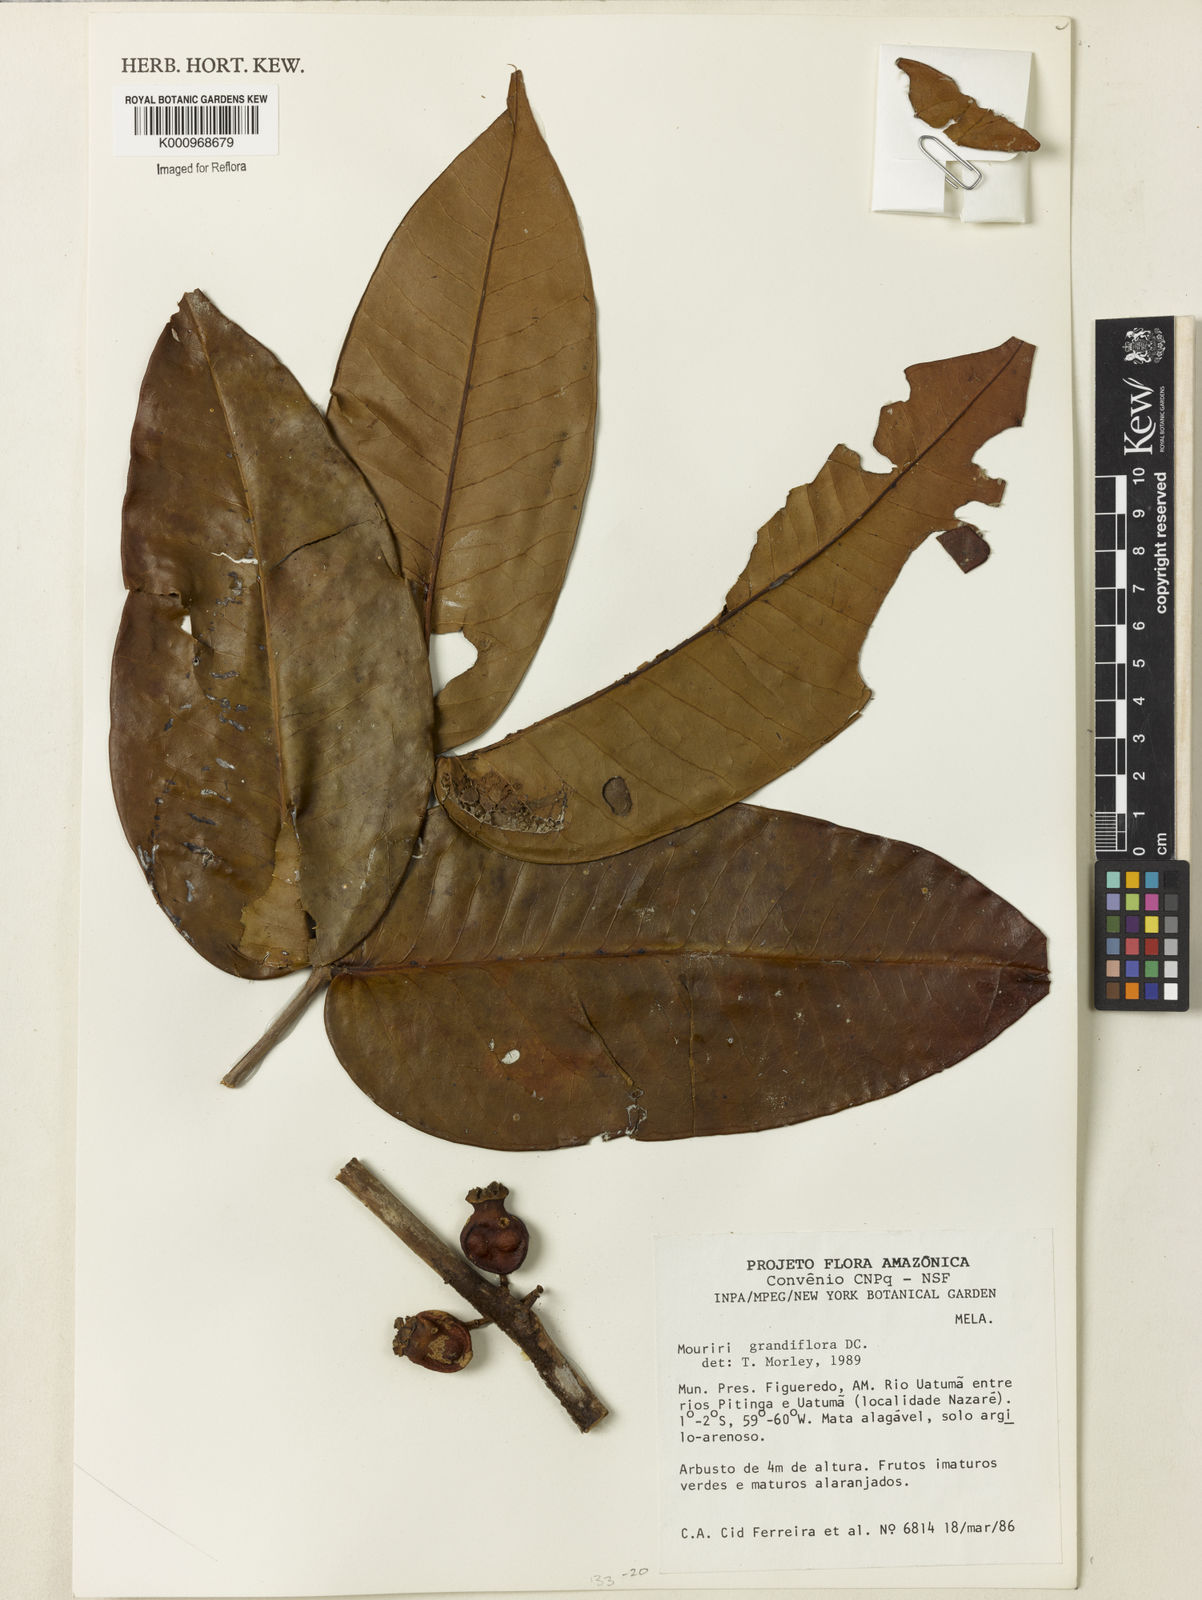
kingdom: Plantae
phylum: Tracheophyta
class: Magnoliopsida
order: Myrtales
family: Melastomataceae
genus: Mouriri
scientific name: Mouriri grandiflora
